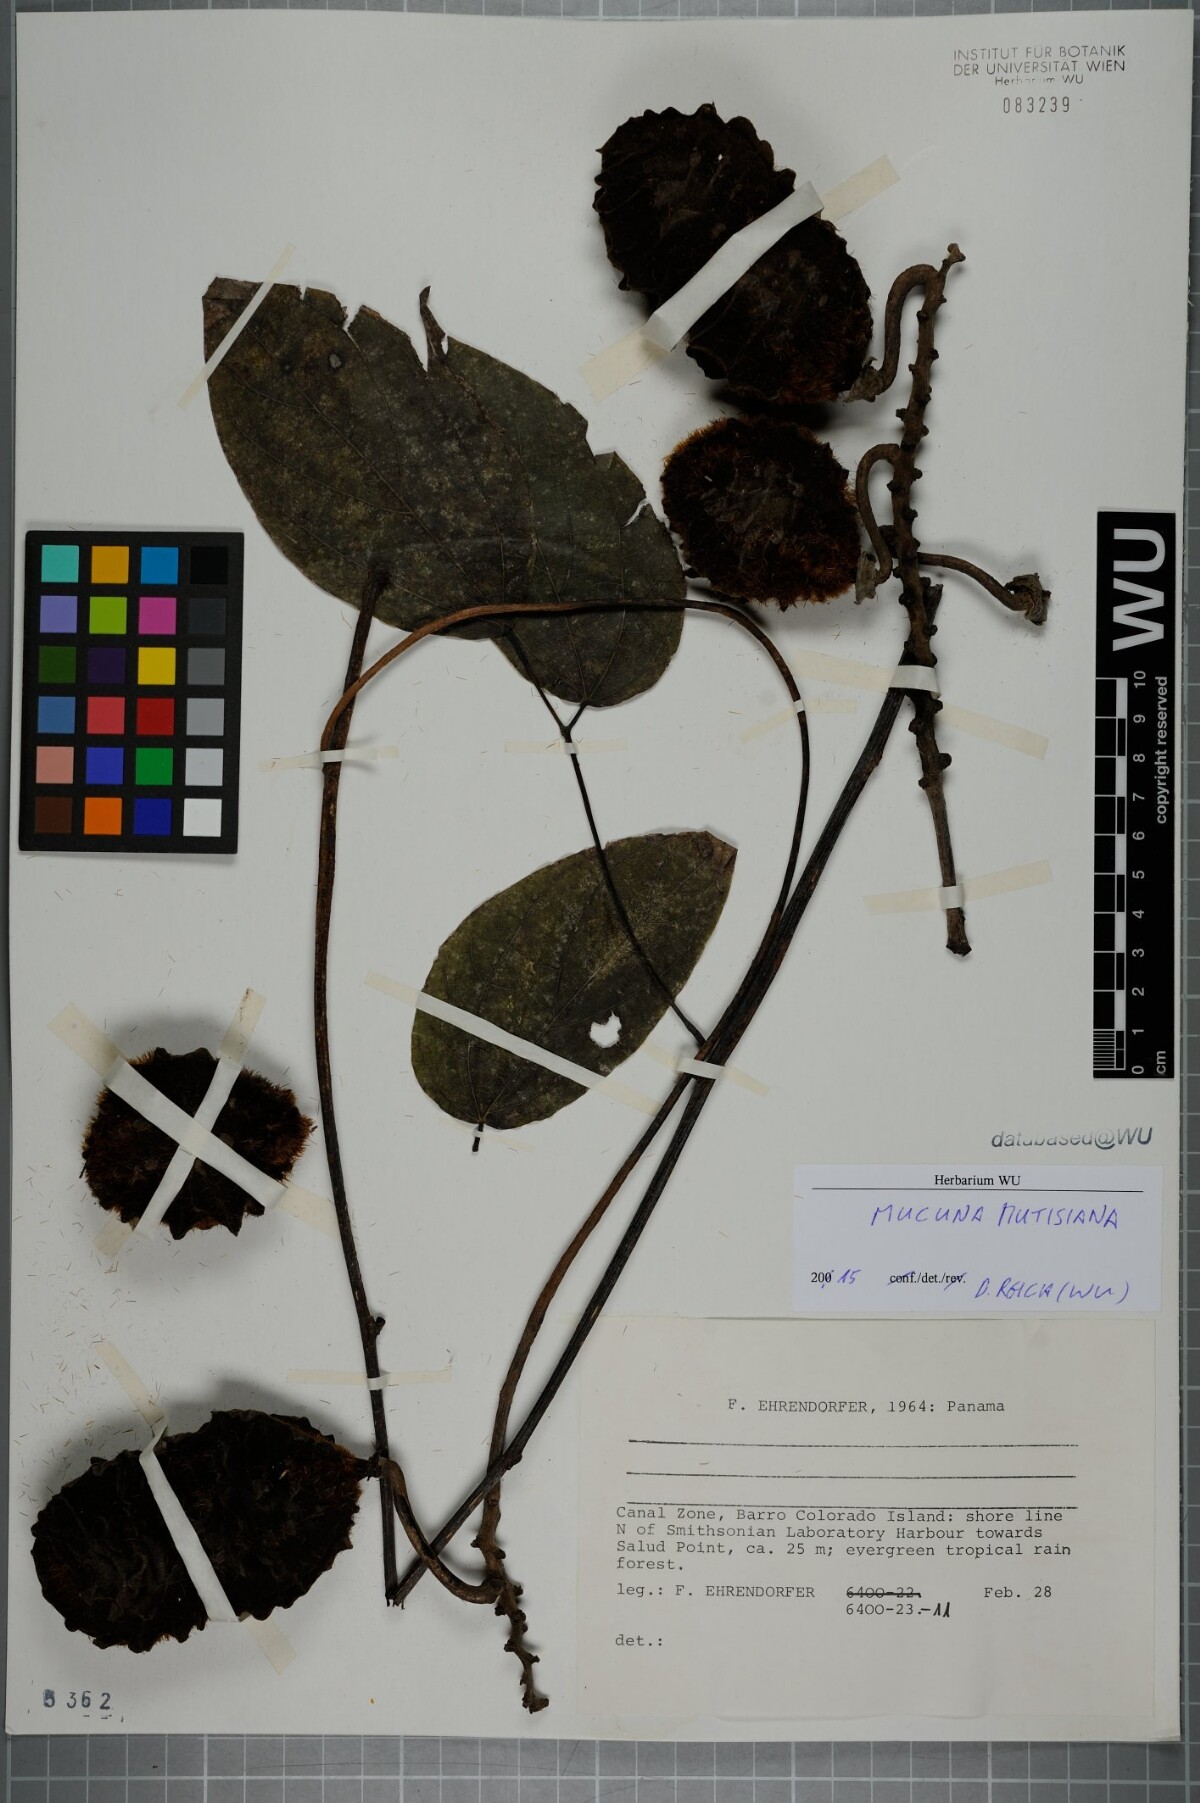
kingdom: Plantae
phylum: Tracheophyta
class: Magnoliopsida
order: Fabales
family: Fabaceae
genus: Mucuna
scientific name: Mucuna mutisiana
